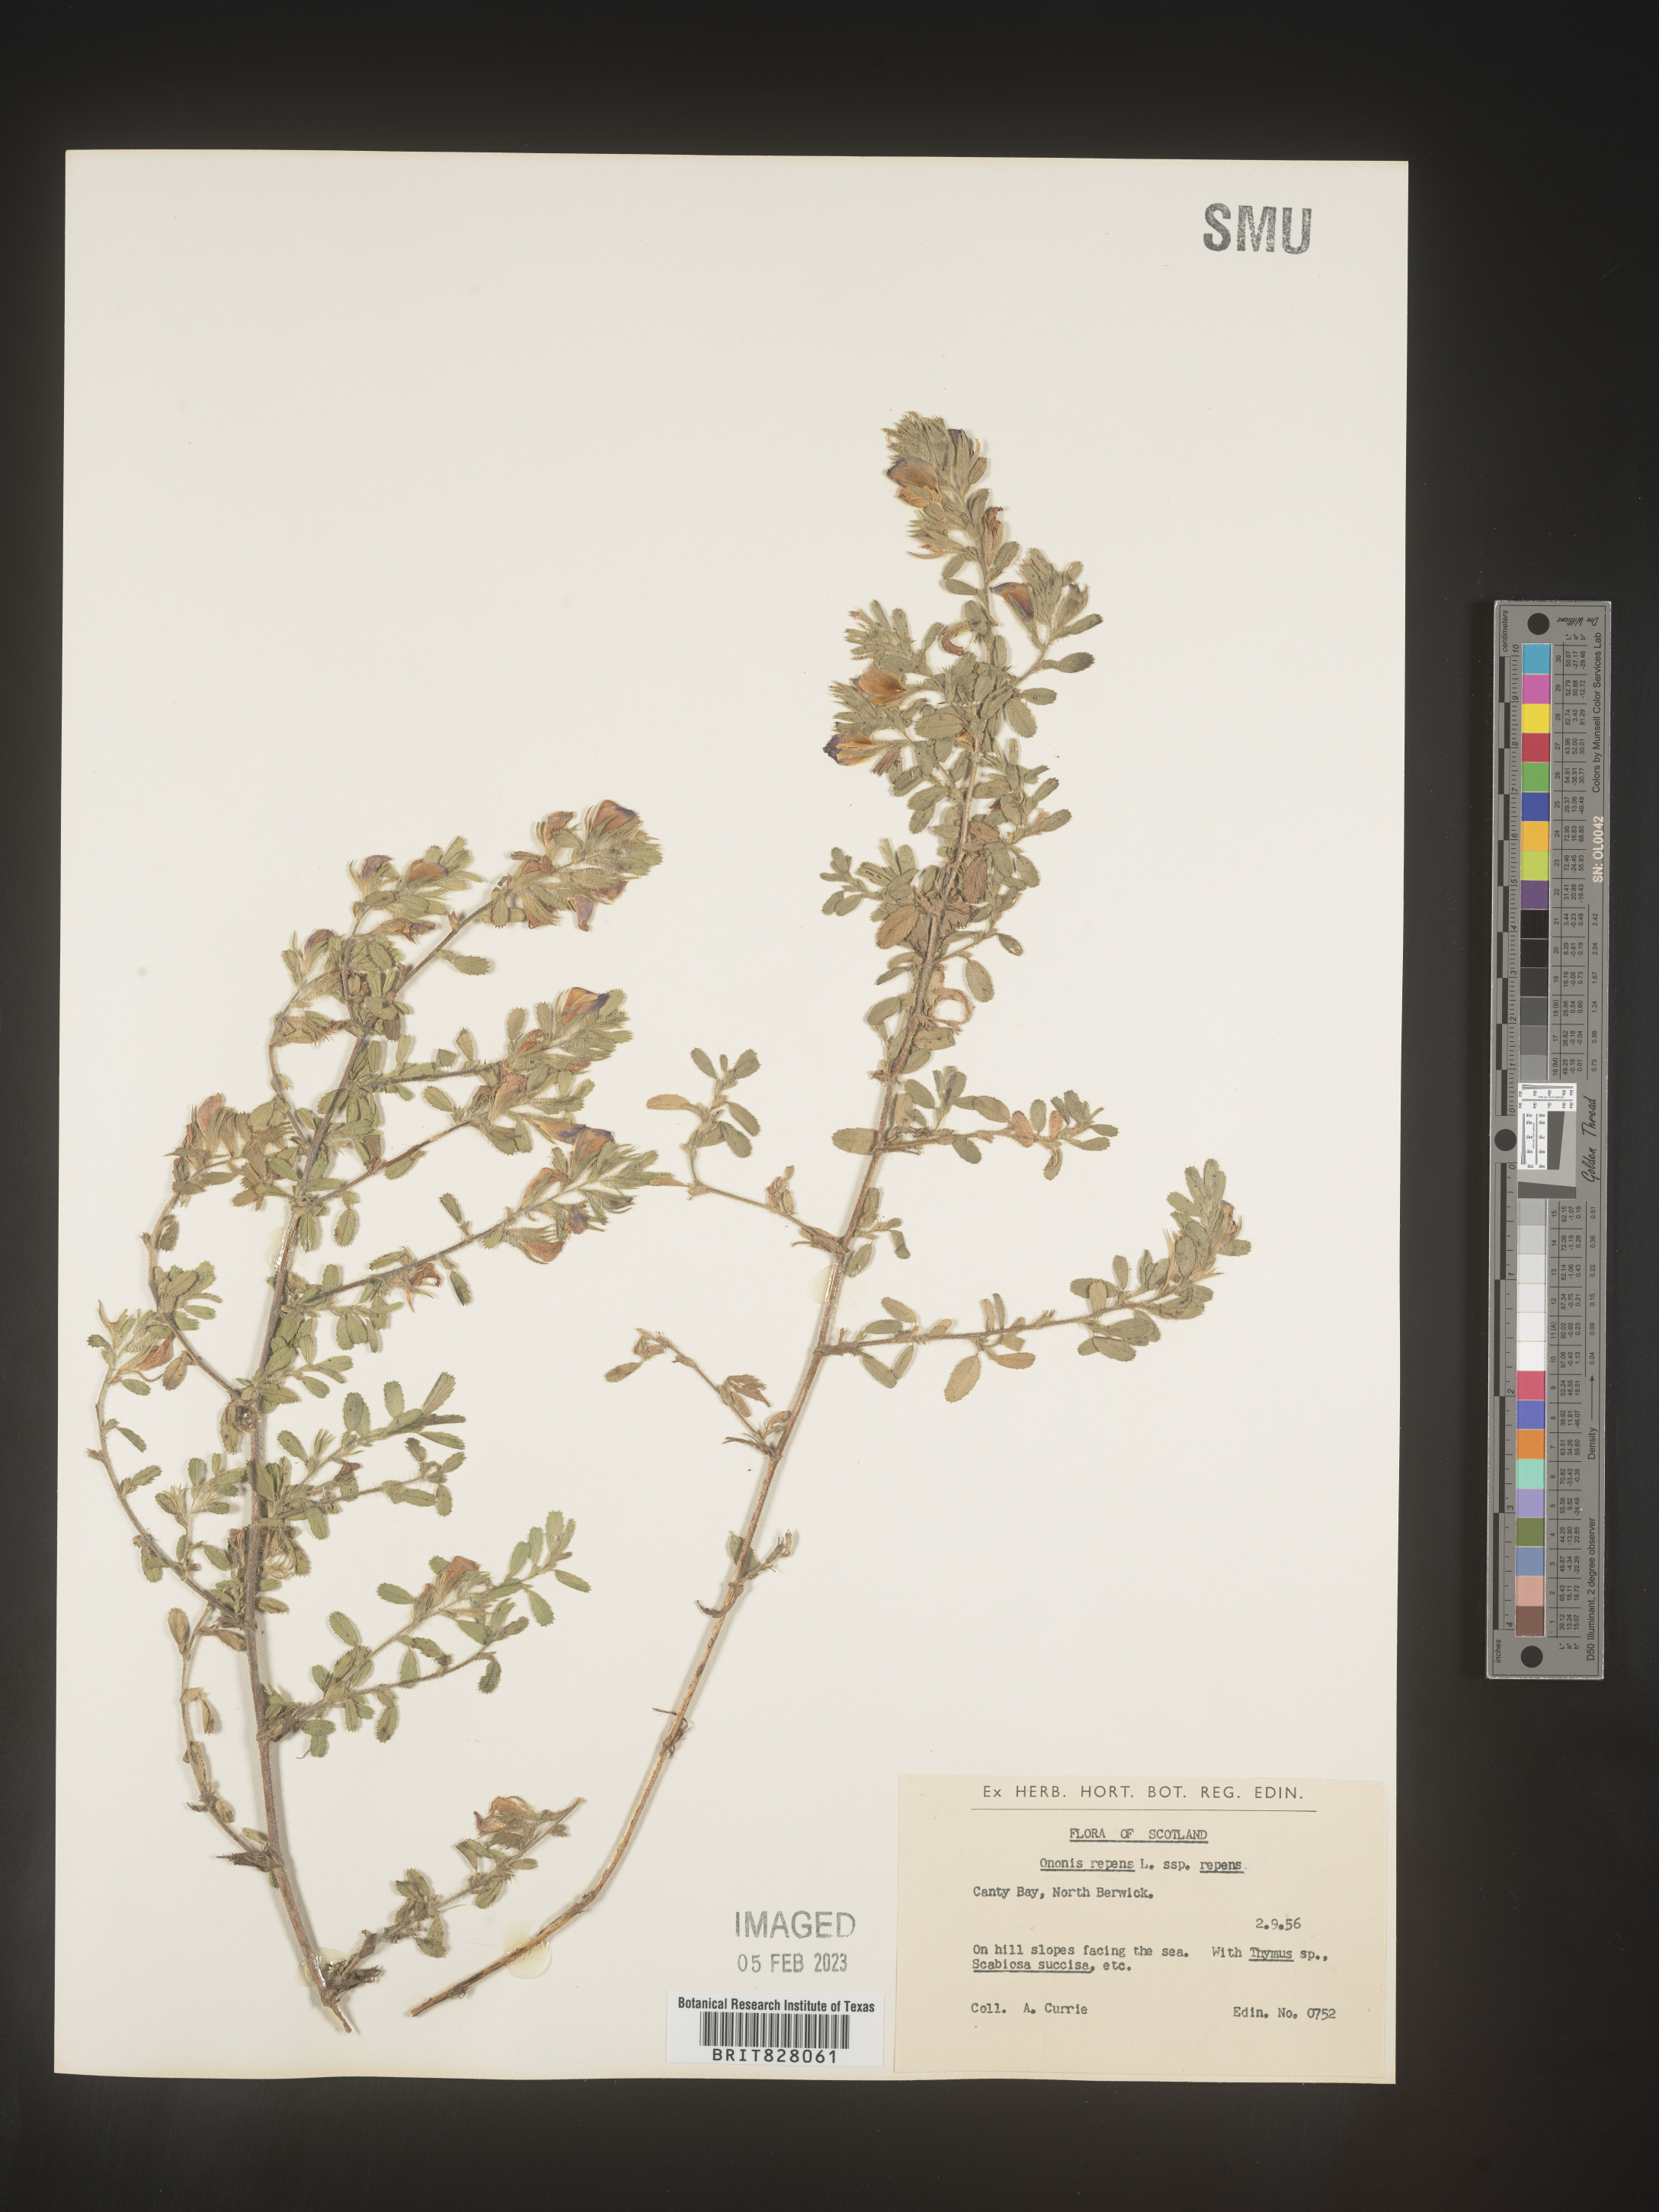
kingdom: Plantae
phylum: Tracheophyta
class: Magnoliopsida
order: Fabales
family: Fabaceae
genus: Ononis
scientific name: Ononis
